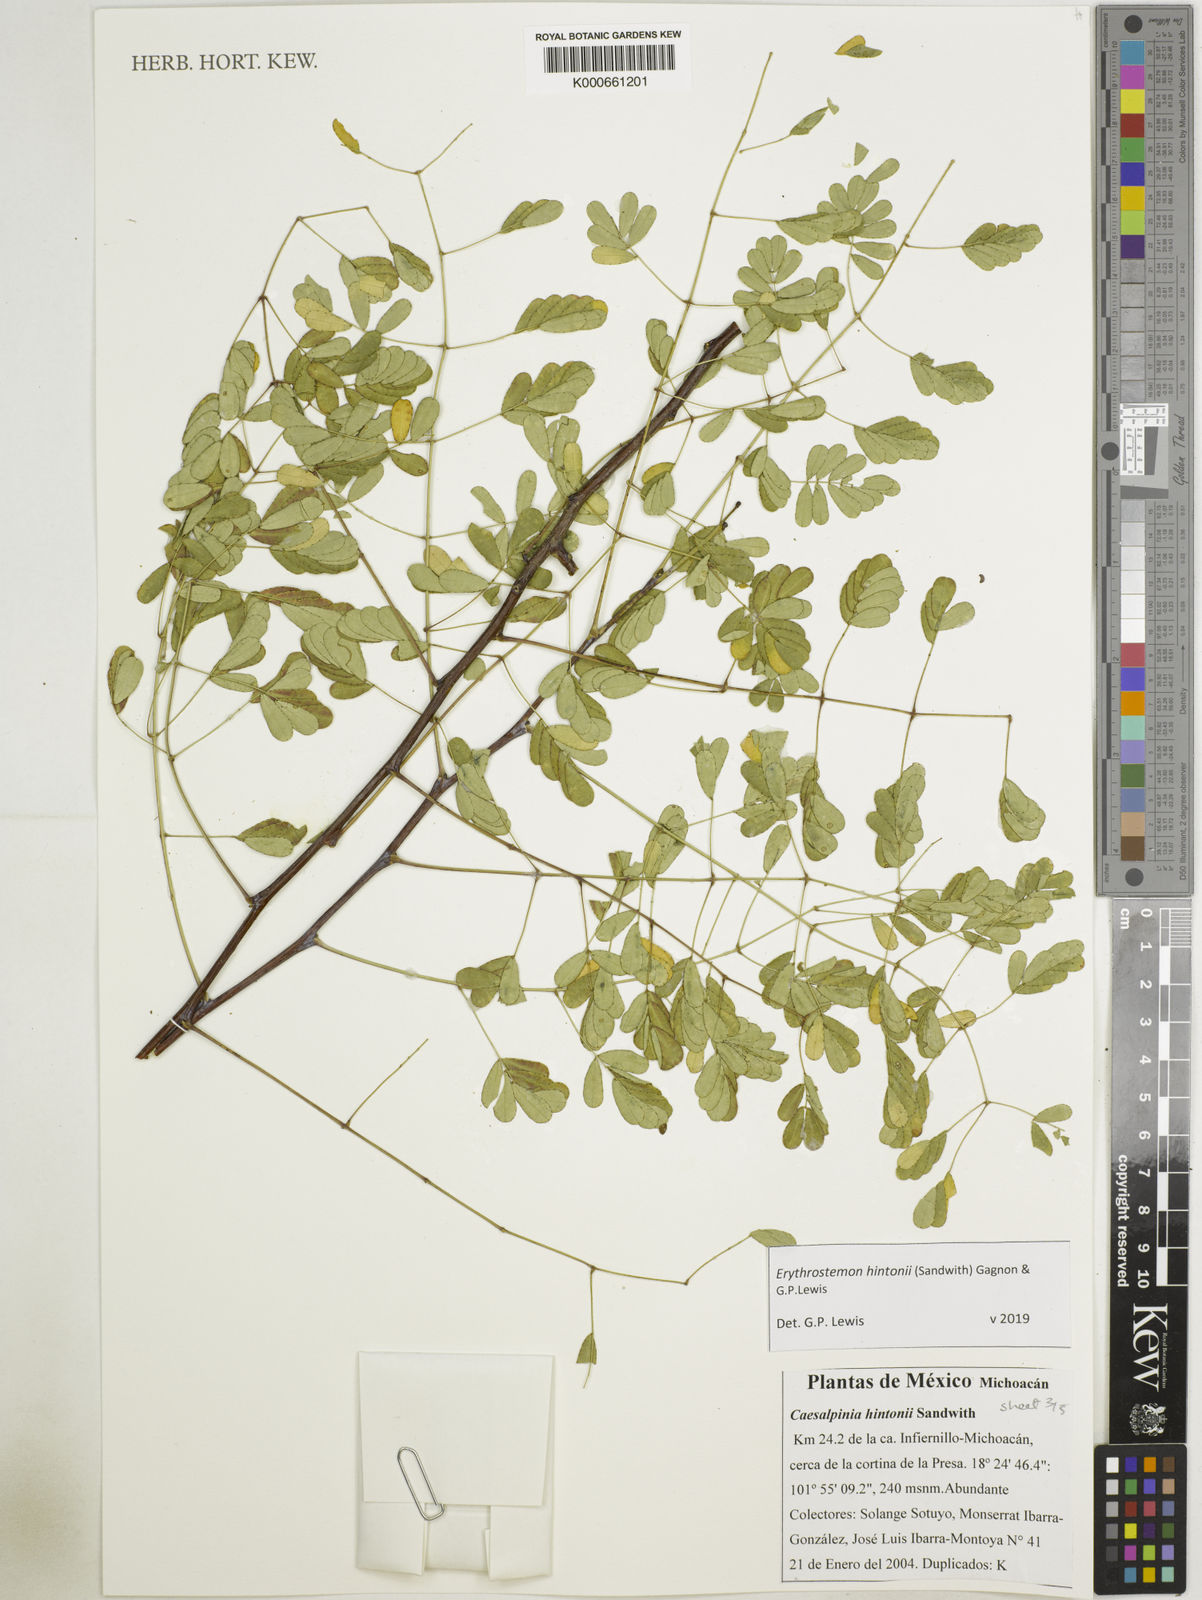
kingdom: Plantae
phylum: Tracheophyta
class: Magnoliopsida
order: Fabales
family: Fabaceae
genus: Erythrostemon
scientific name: Erythrostemon hintonii
